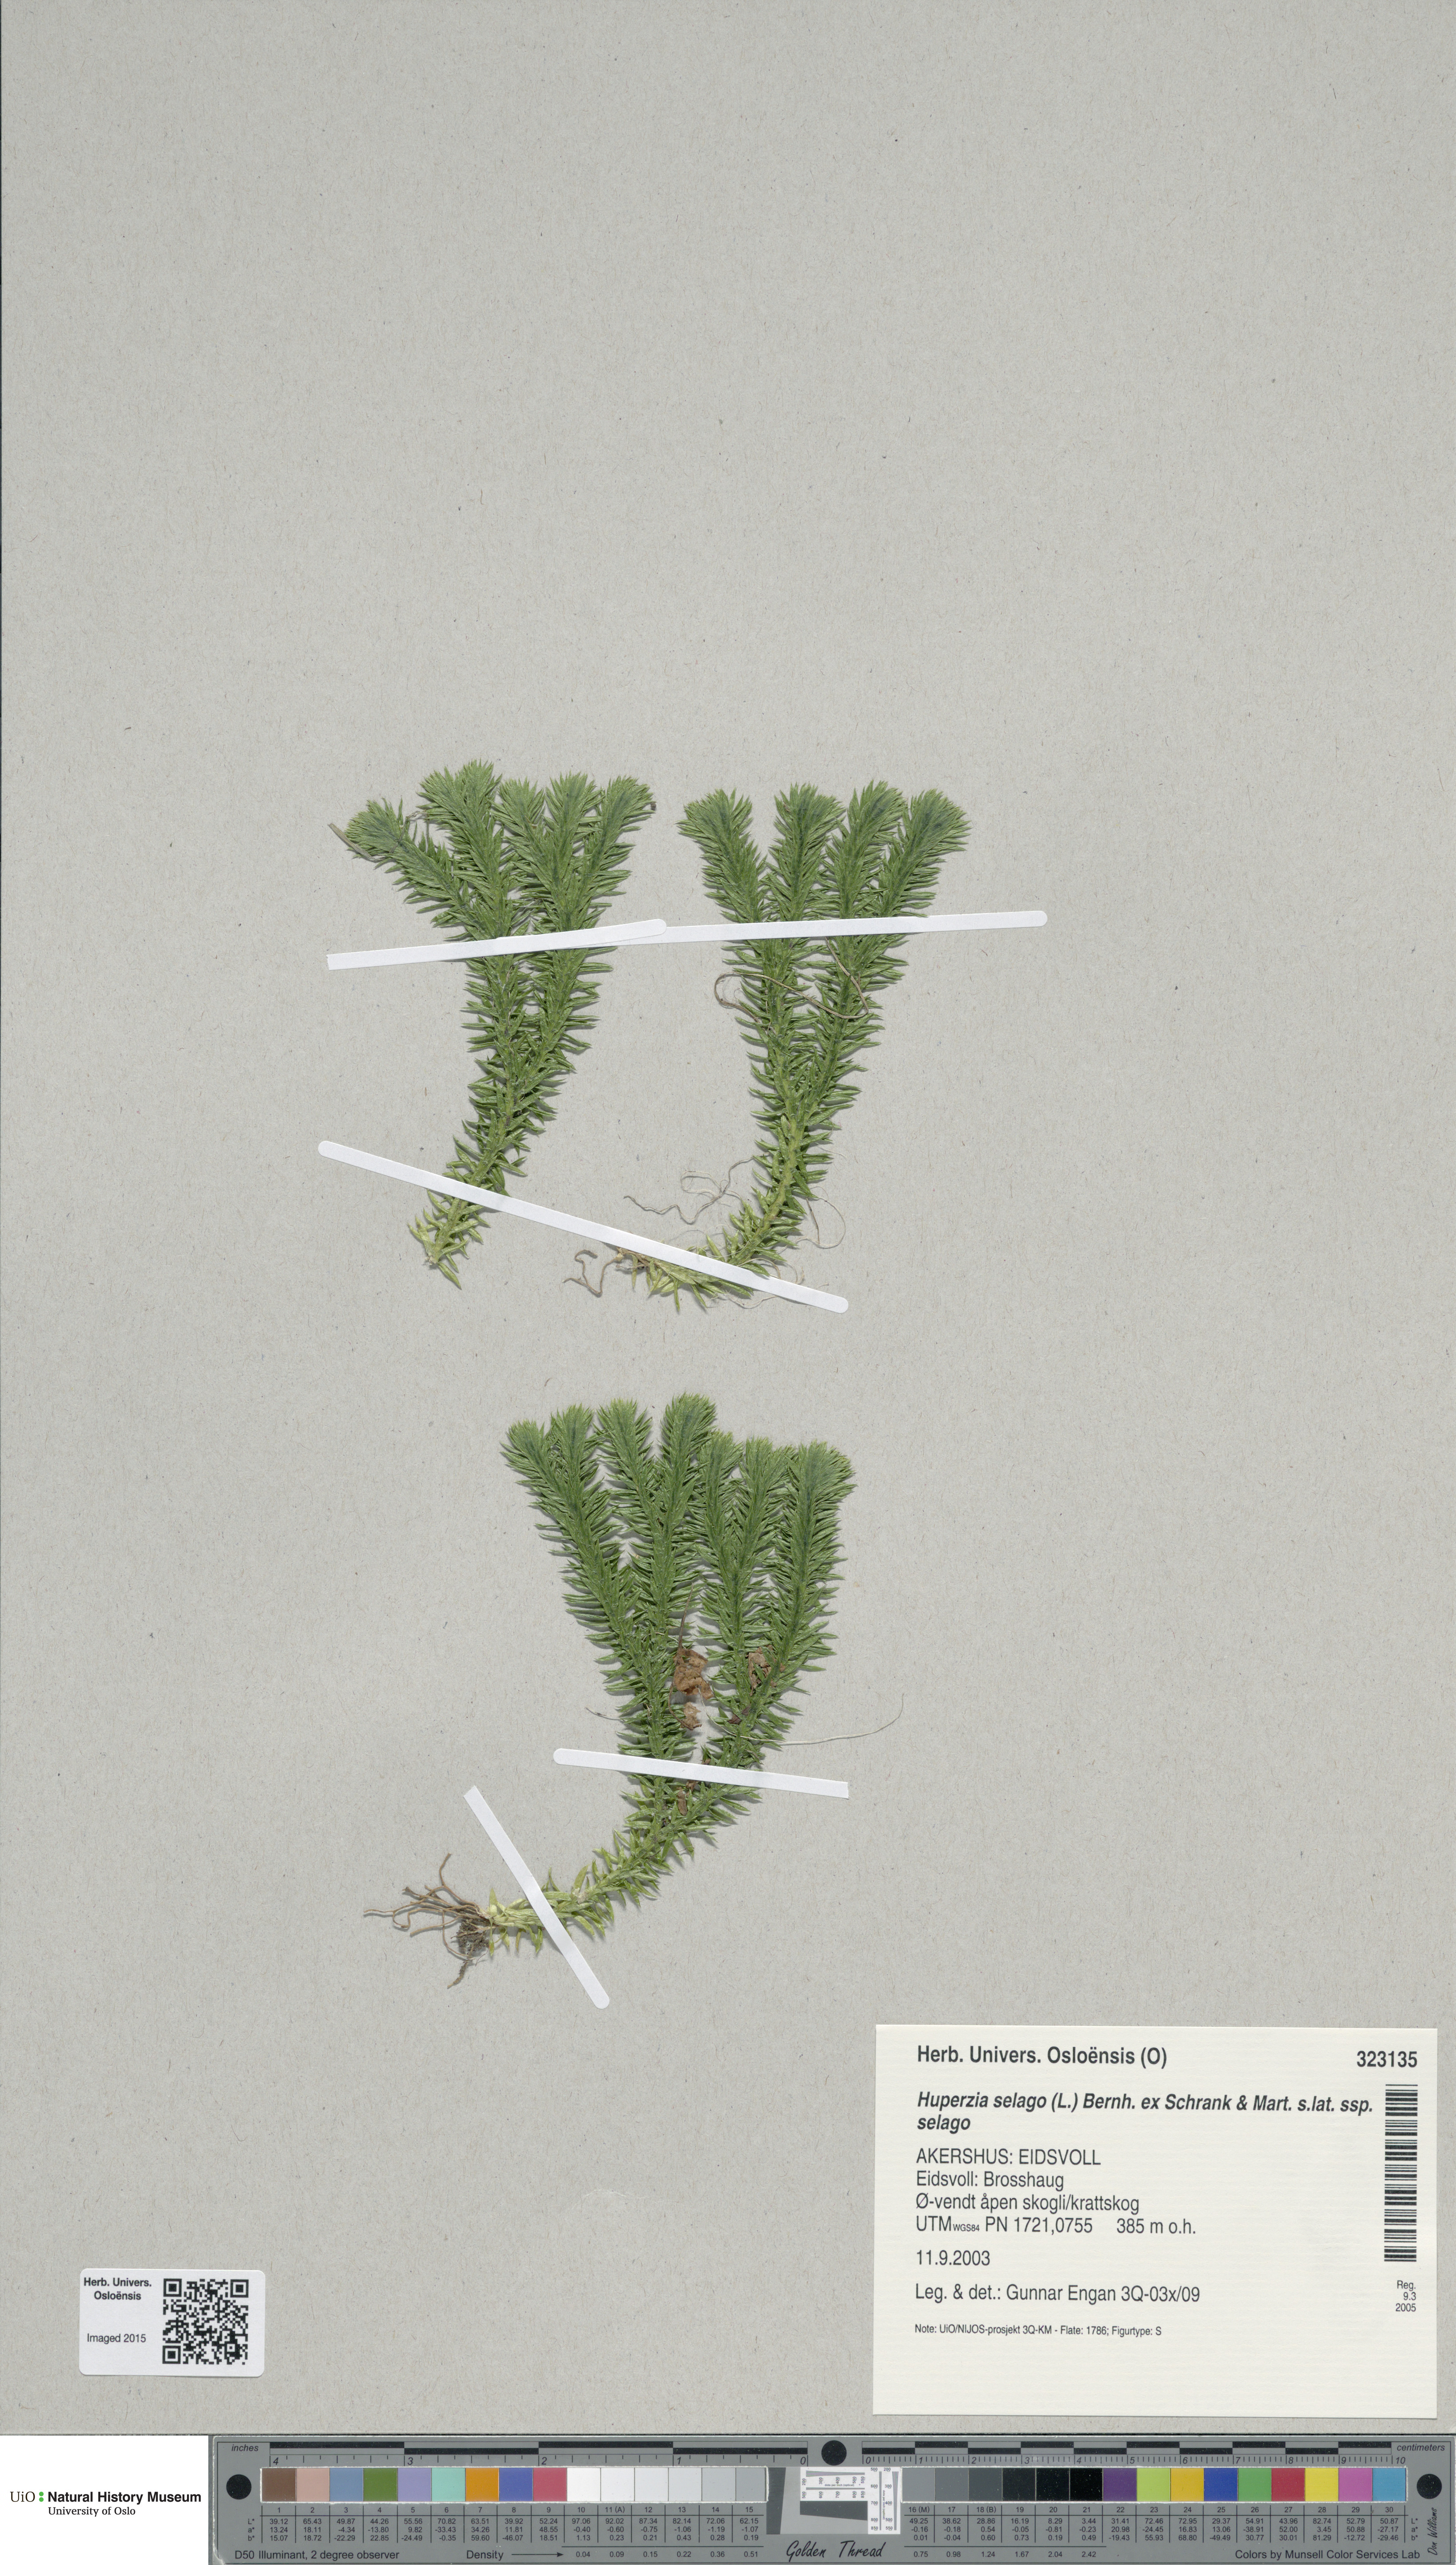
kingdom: Plantae
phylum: Tracheophyta
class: Lycopodiopsida
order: Lycopodiales
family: Lycopodiaceae
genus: Huperzia
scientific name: Huperzia selago
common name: Northern firmoss
